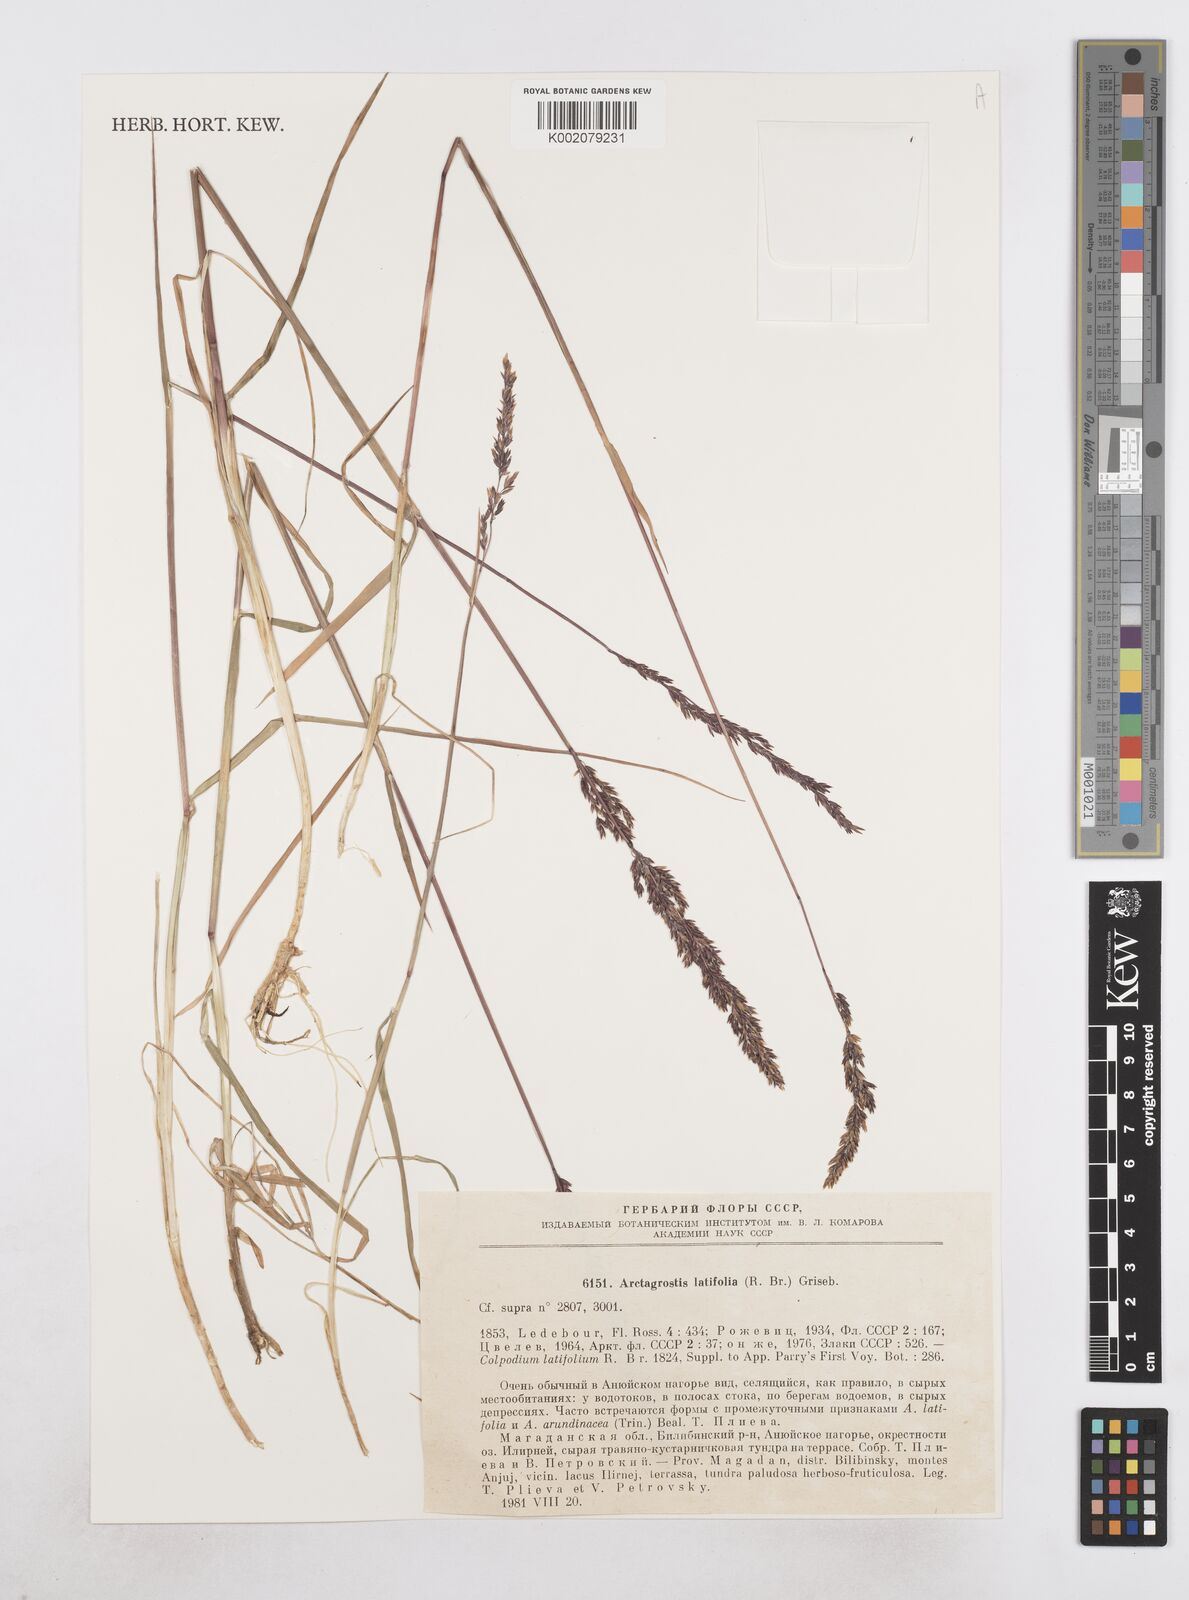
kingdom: Plantae
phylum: Tracheophyta
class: Liliopsida
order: Poales
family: Poaceae
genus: Arctagrostis
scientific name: Arctagrostis latifolia
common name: Arctic grass
